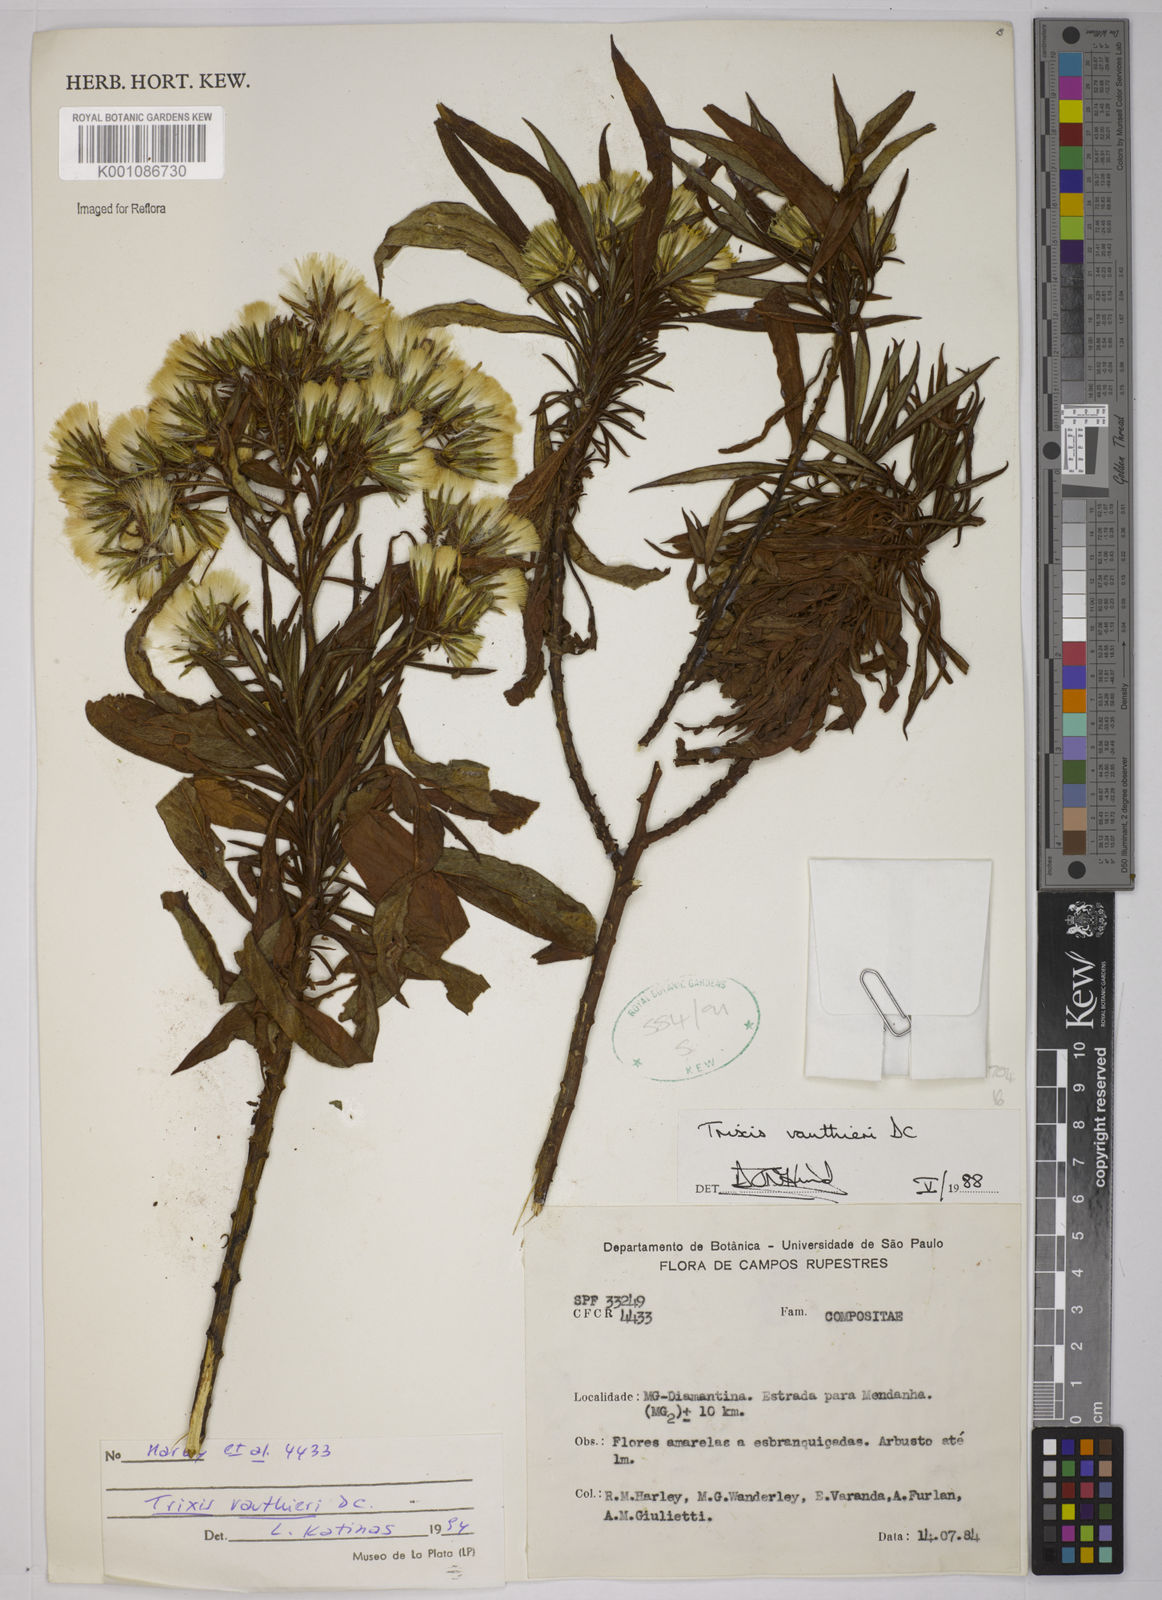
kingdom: Plantae
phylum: Tracheophyta
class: Magnoliopsida
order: Asterales
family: Asteraceae
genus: Trixis
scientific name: Trixis vauthieri
